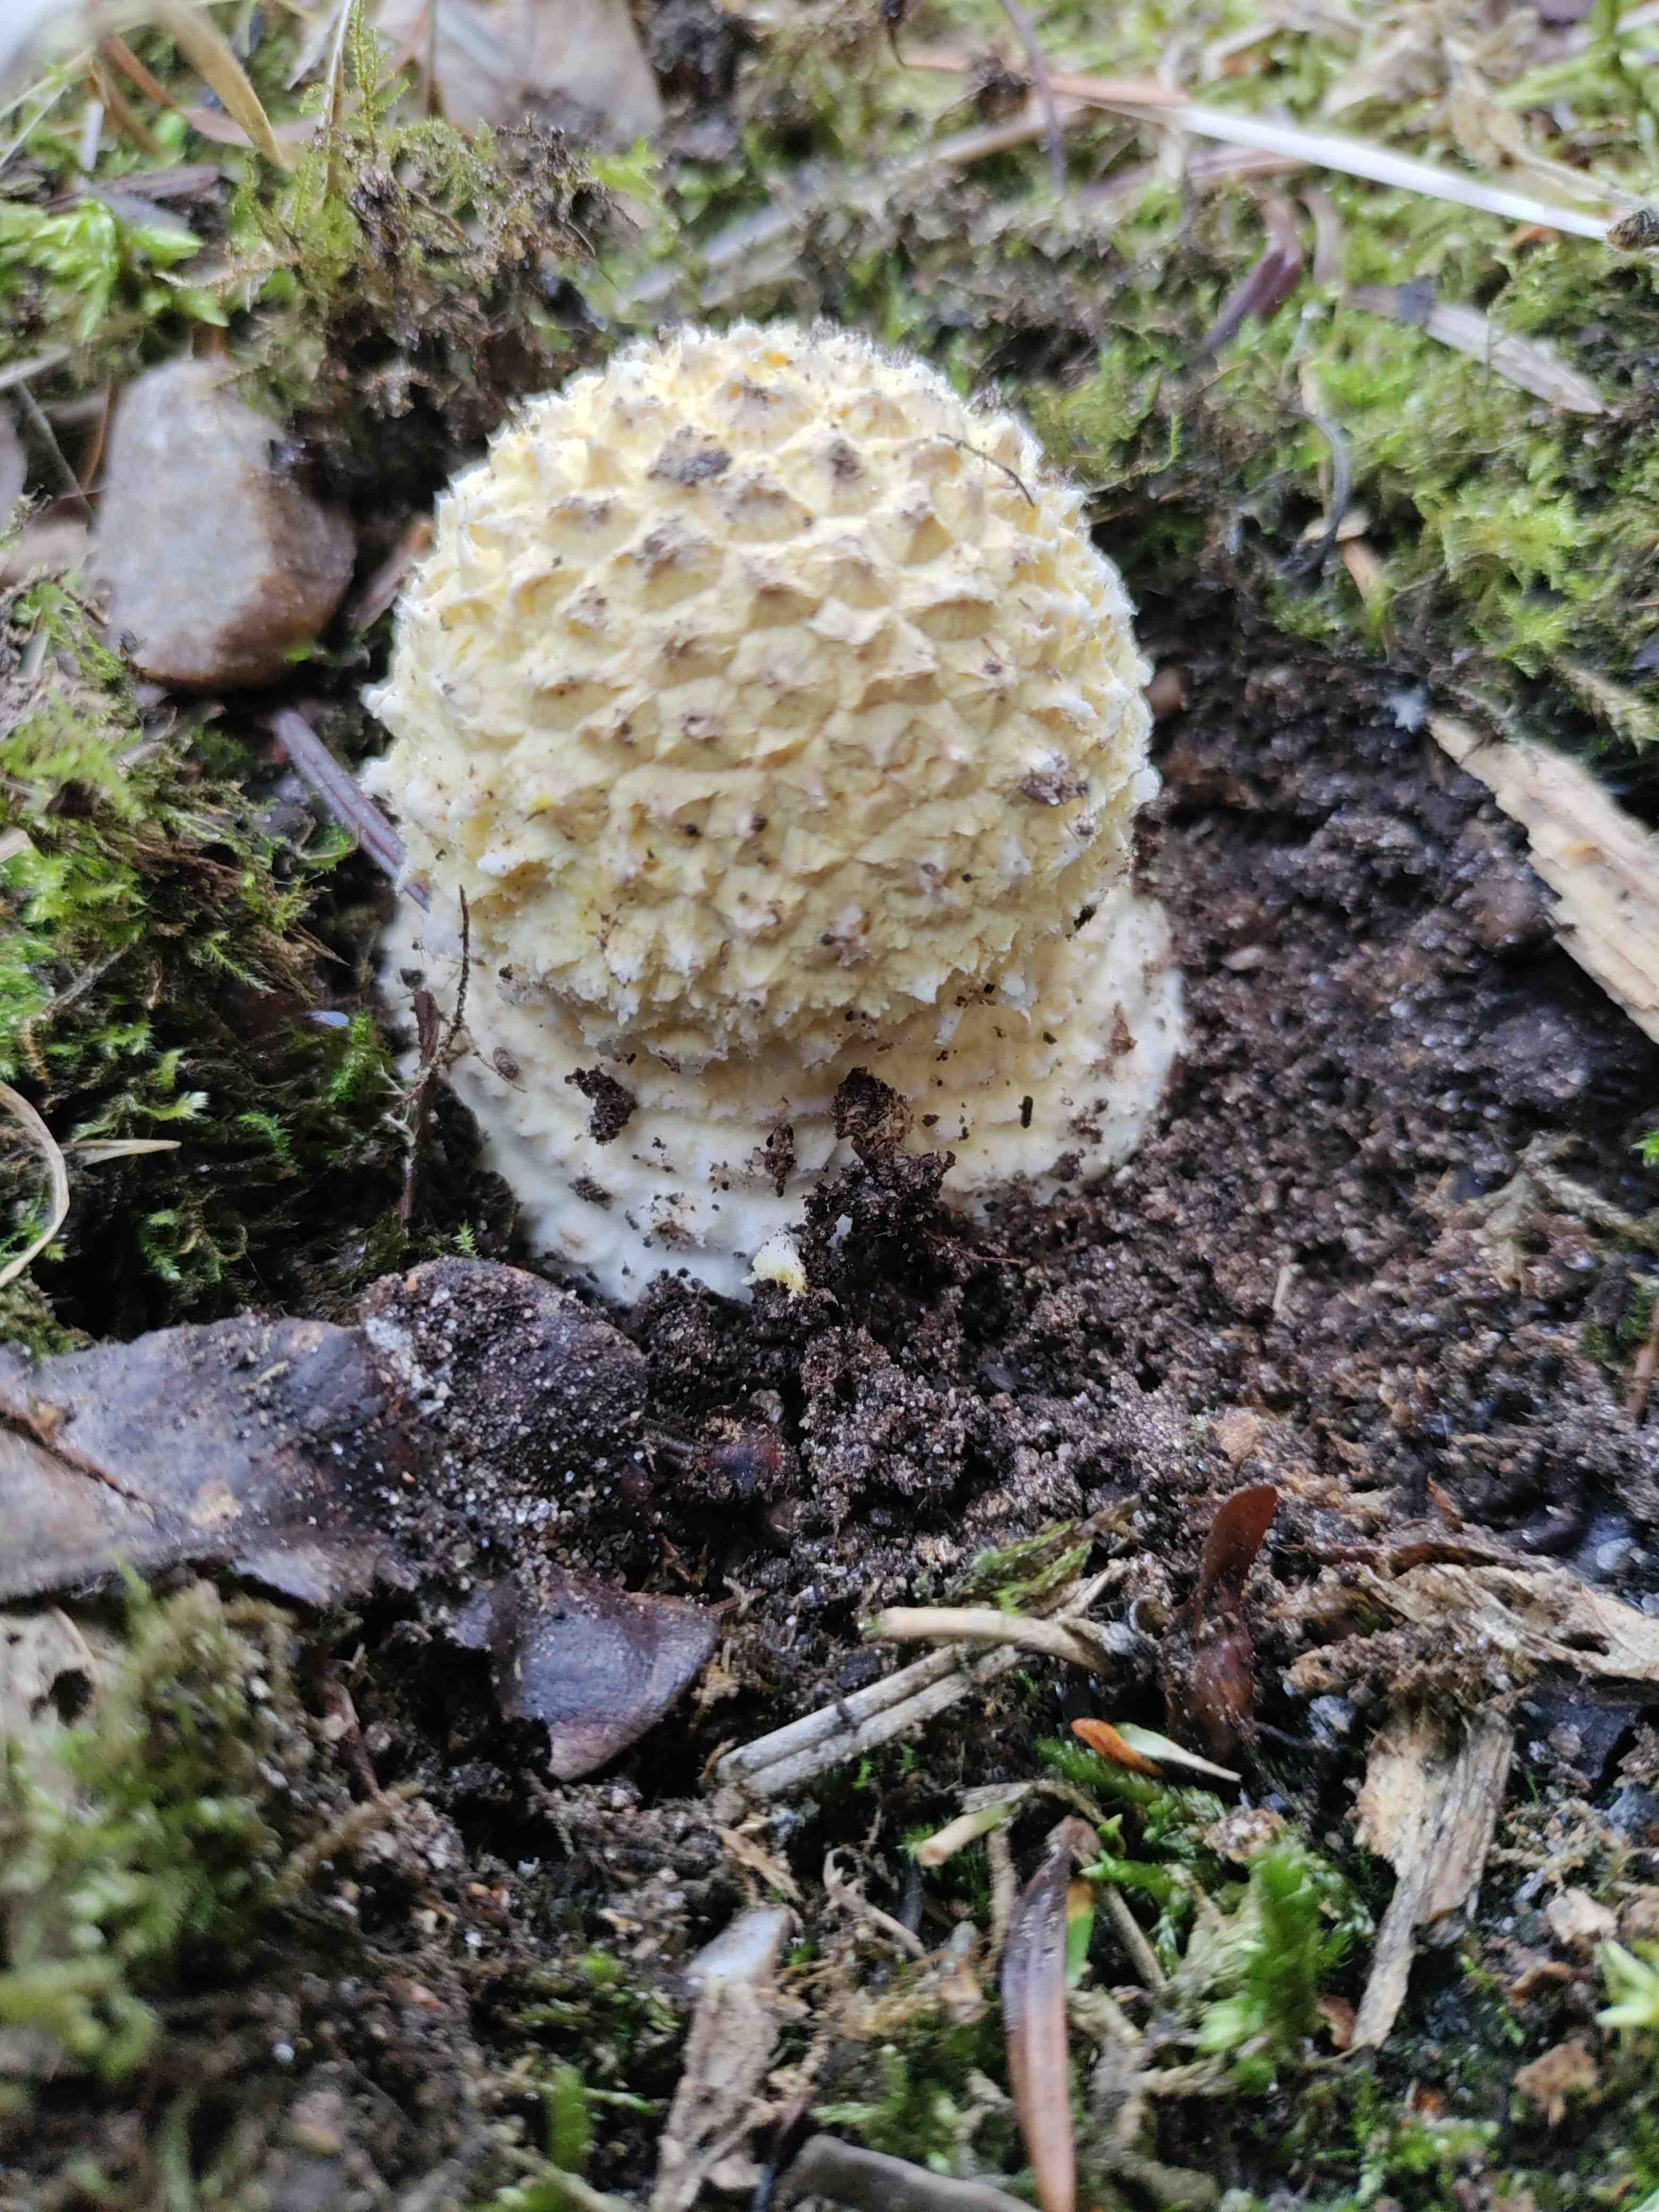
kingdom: Fungi
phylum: Basidiomycota
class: Agaricomycetes
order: Agaricales
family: Amanitaceae
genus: Amanita
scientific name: Amanita muscaria
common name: rød fluesvamp
